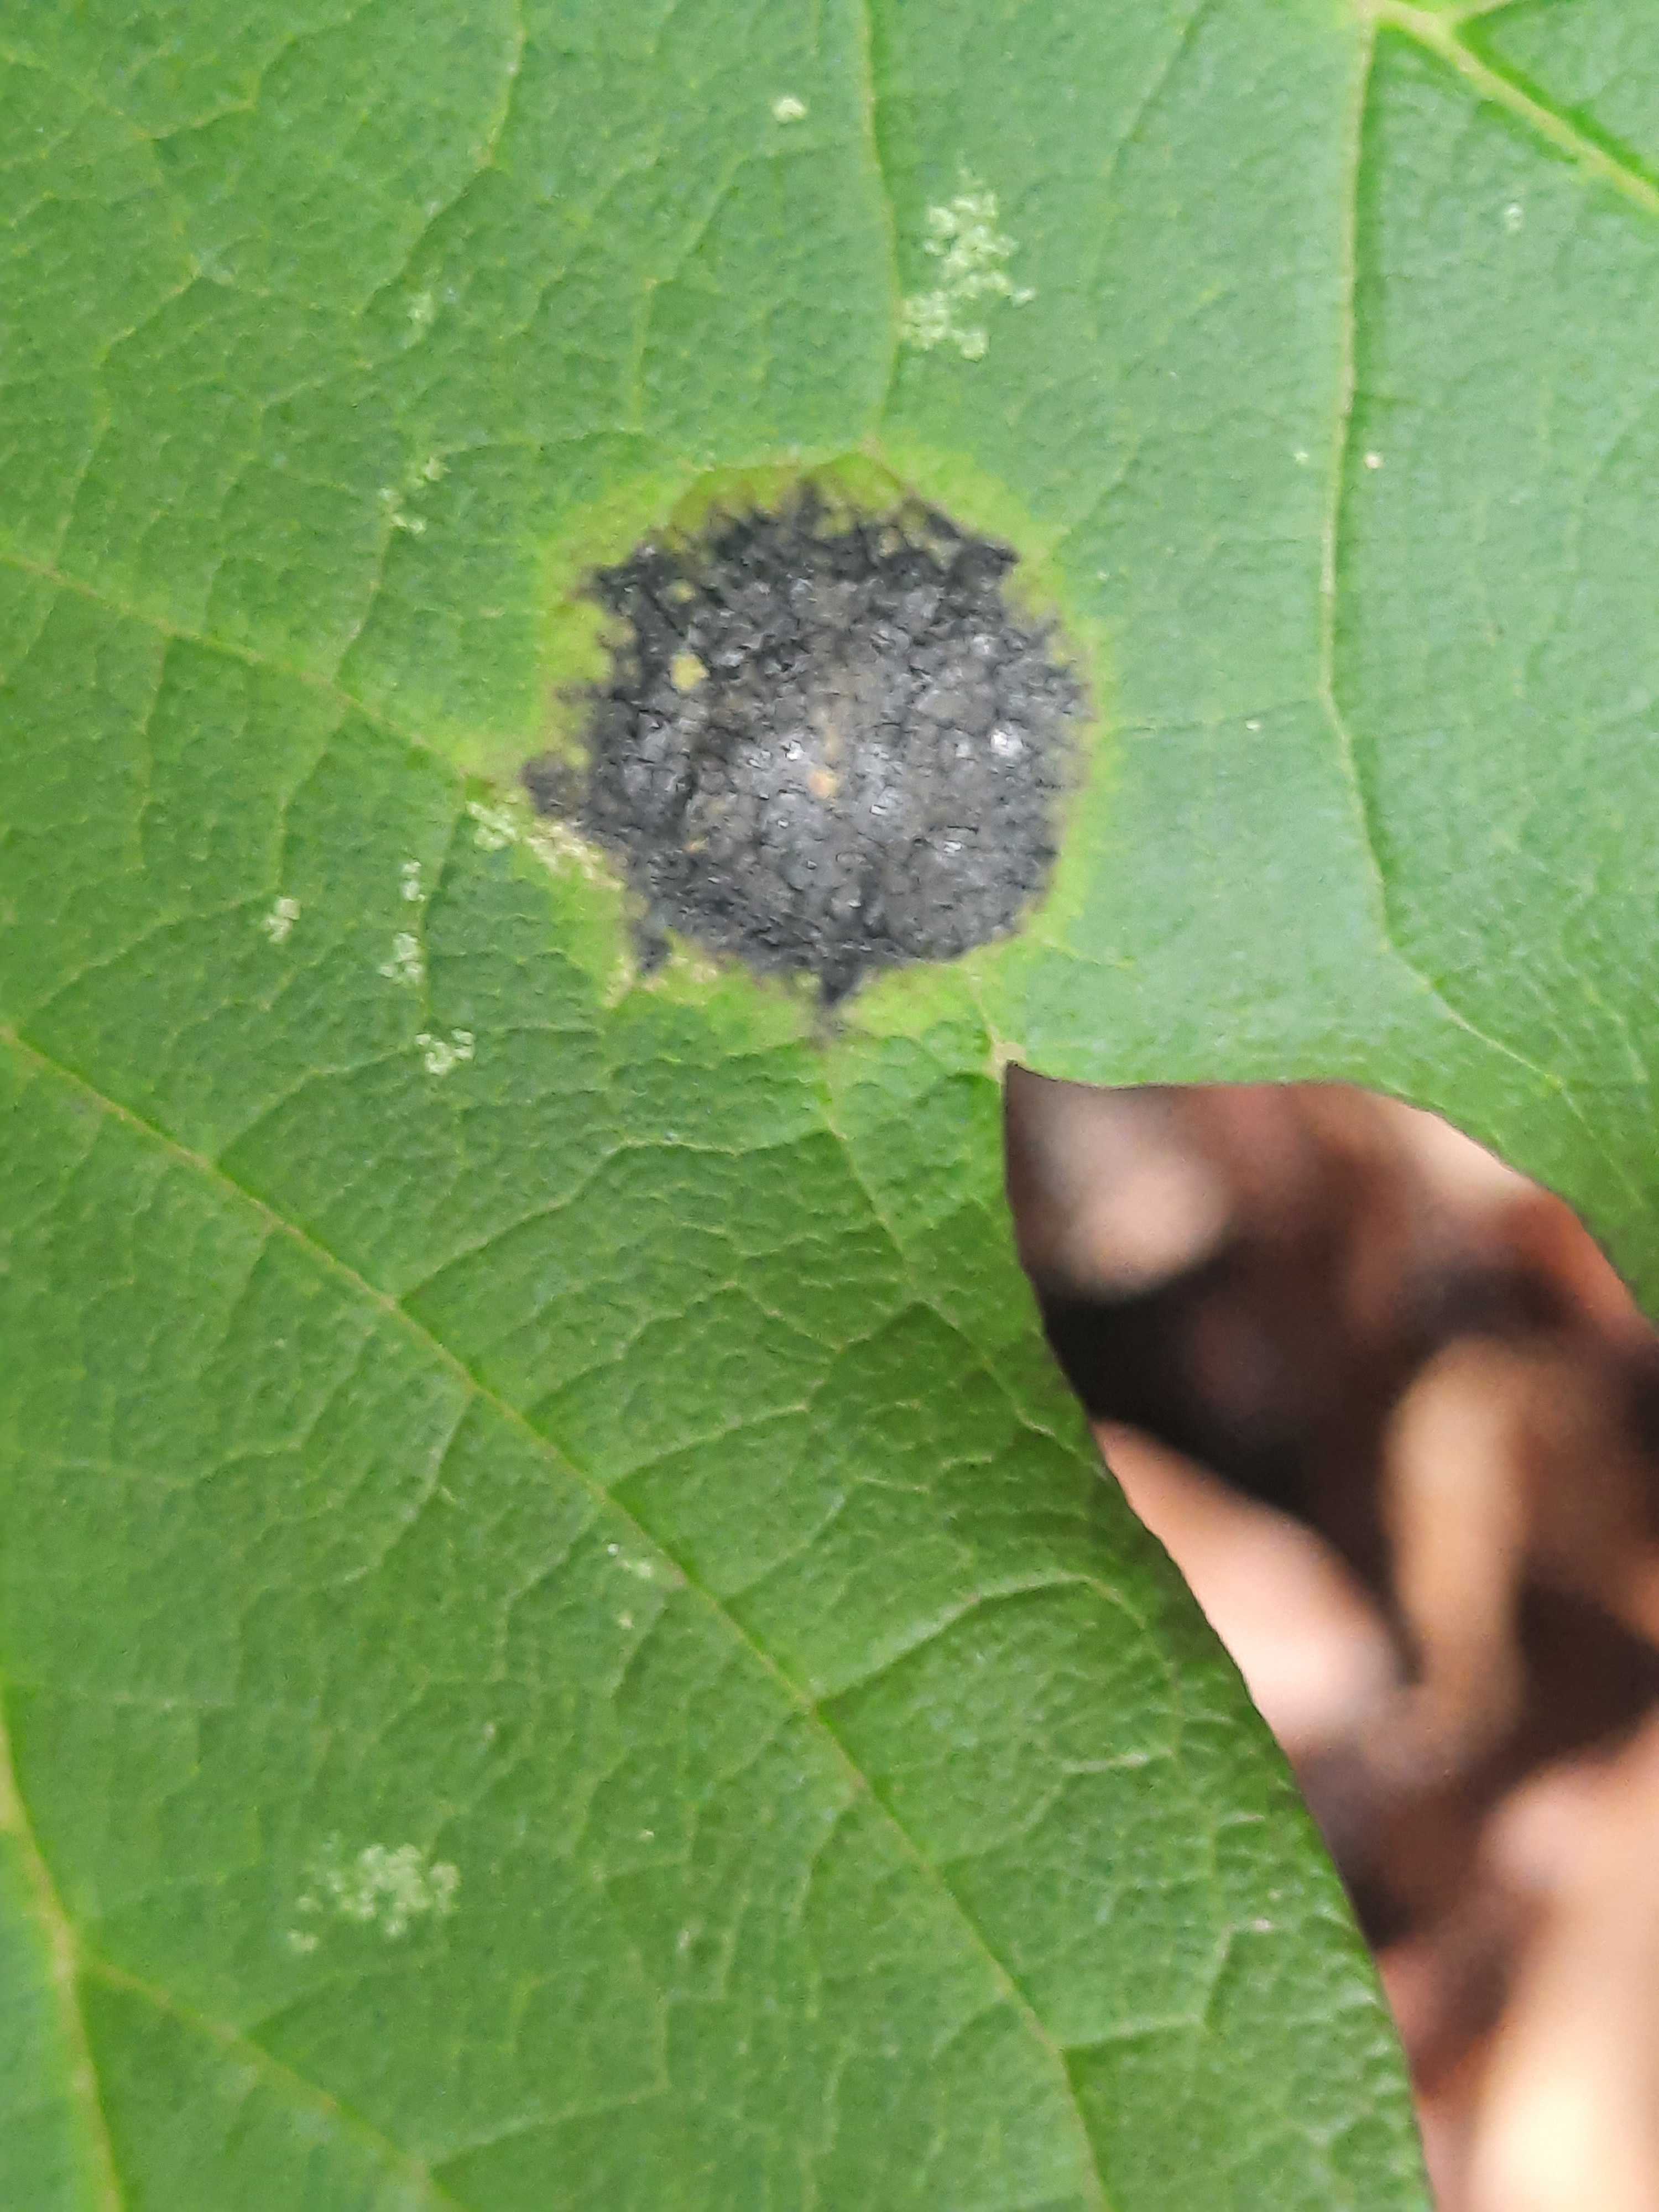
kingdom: Fungi
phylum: Ascomycota
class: Leotiomycetes
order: Rhytismatales
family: Rhytismataceae
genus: Rhytisma
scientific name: Rhytisma acerinum
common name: ahorn-rynkeplet
